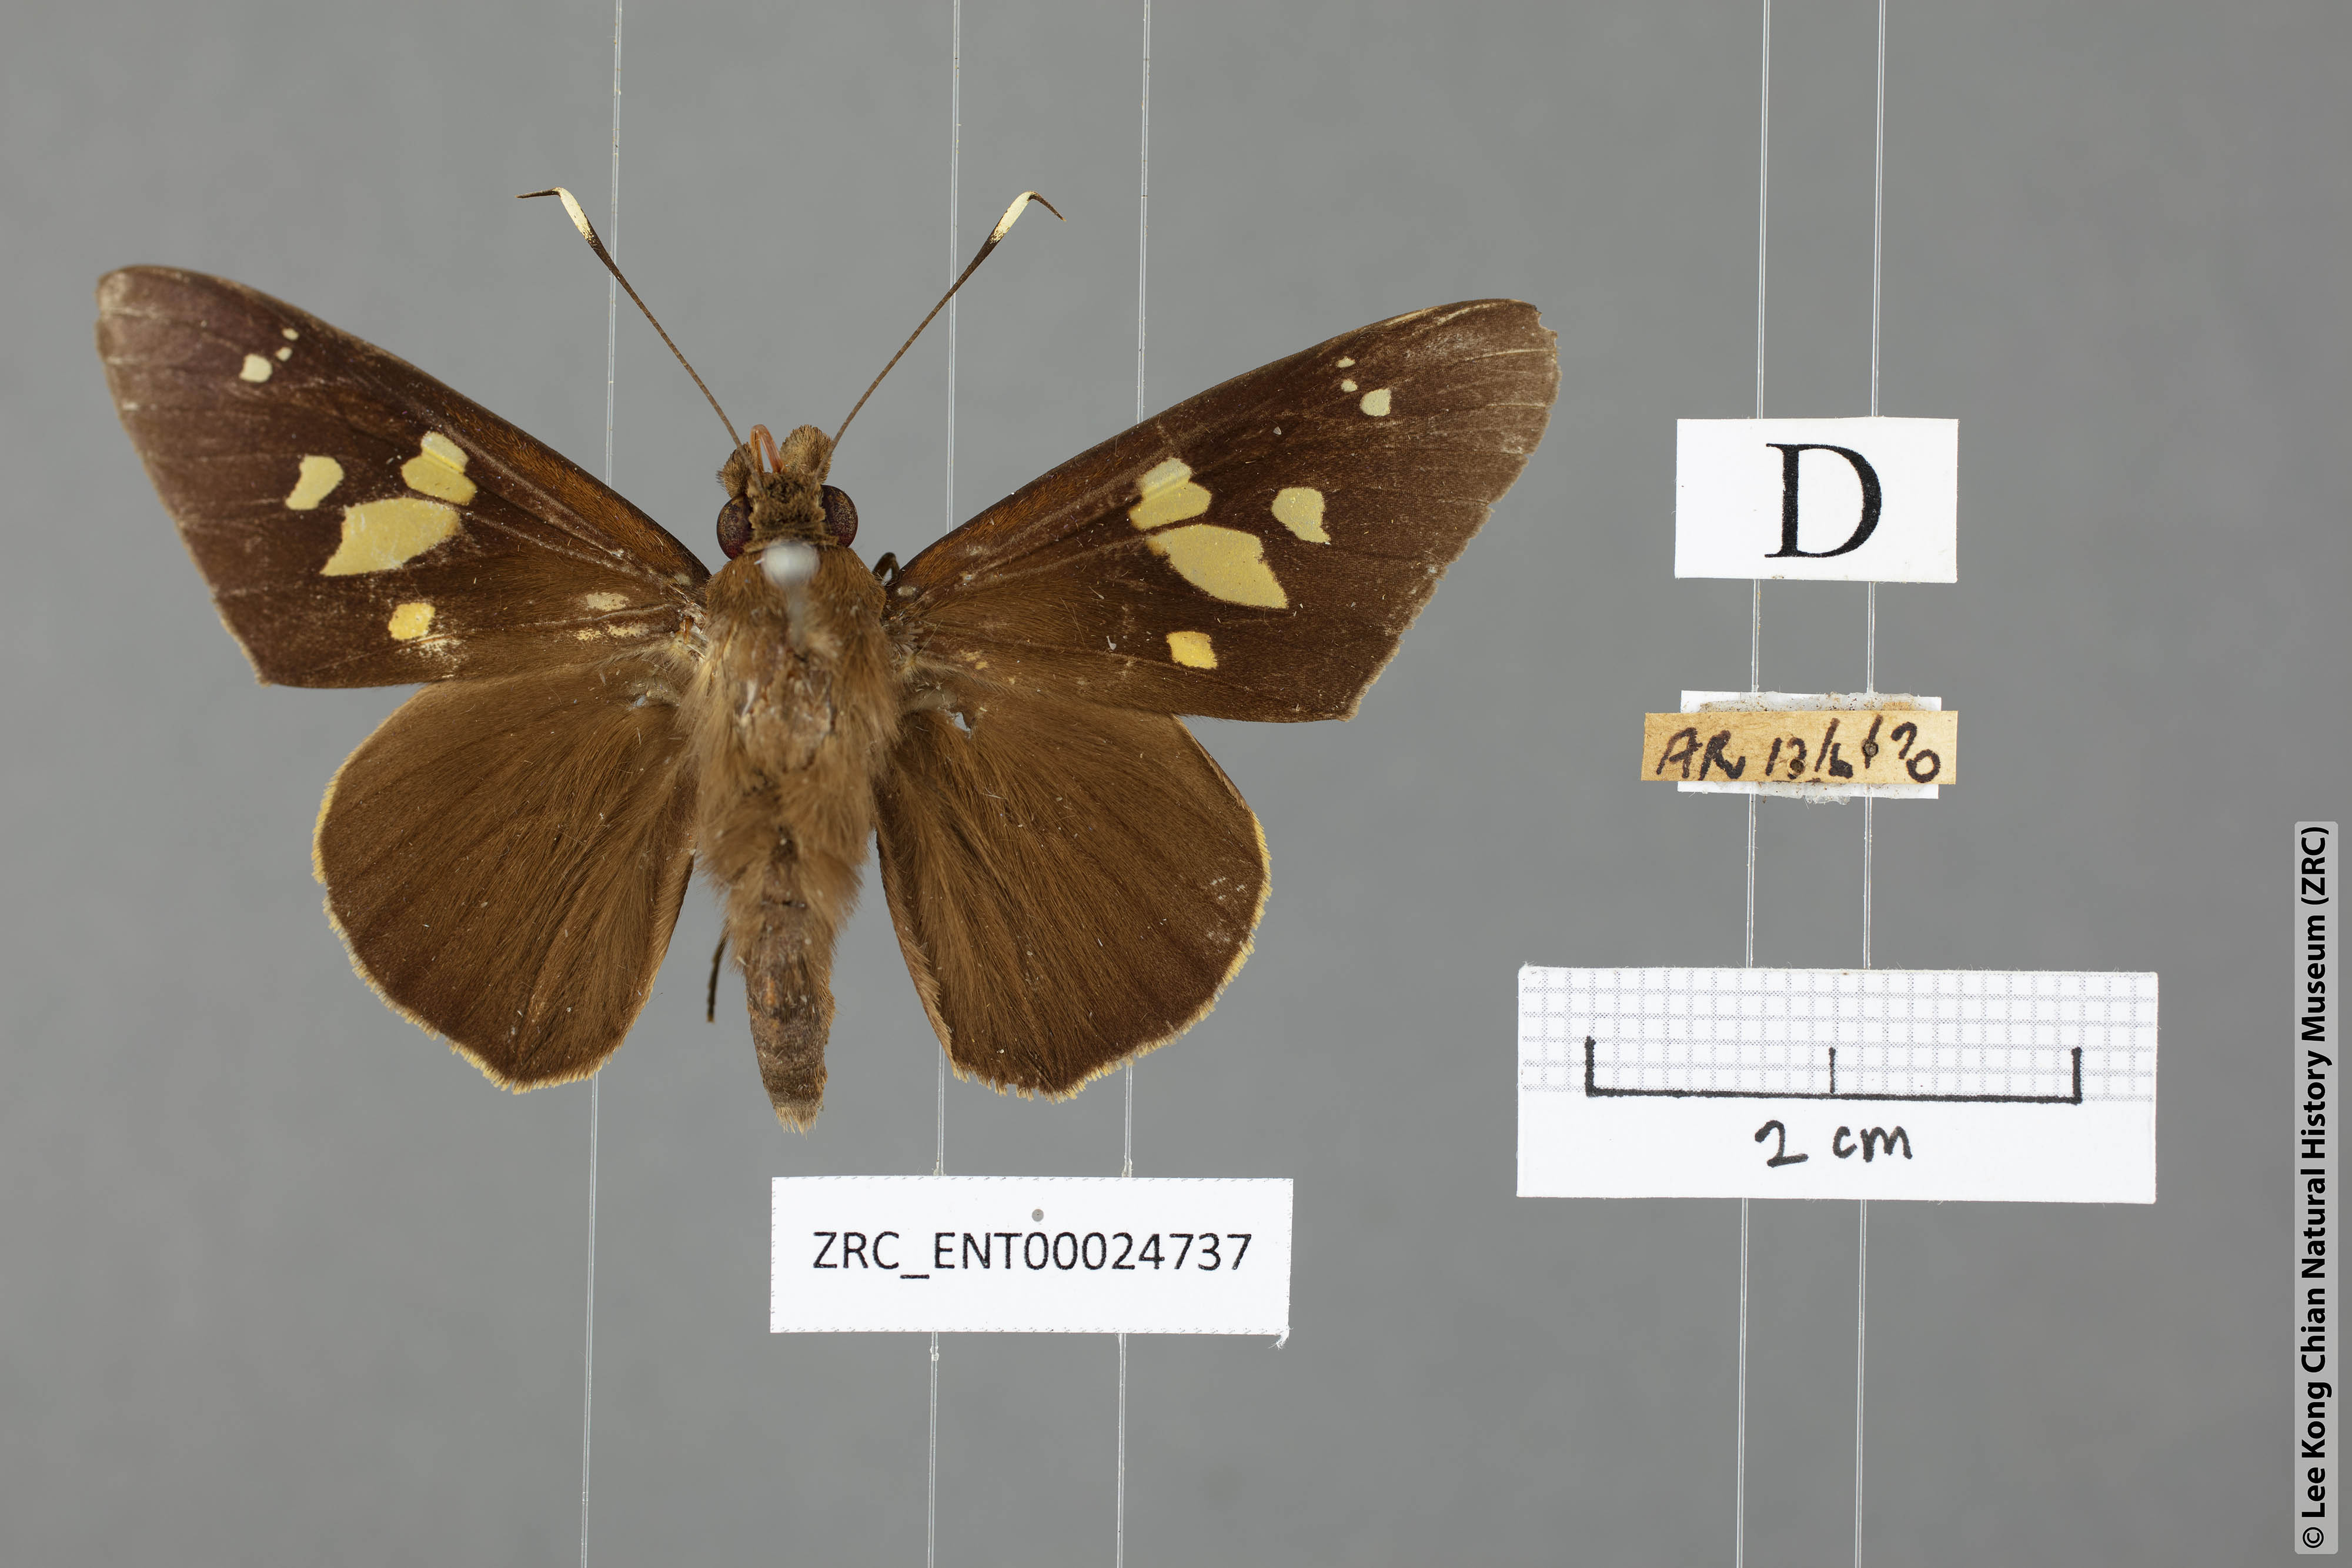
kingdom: Animalia
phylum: Arthropoda
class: Insecta
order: Lepidoptera
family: Hesperiidae
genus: Hidari
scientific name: Hidari doesoena
